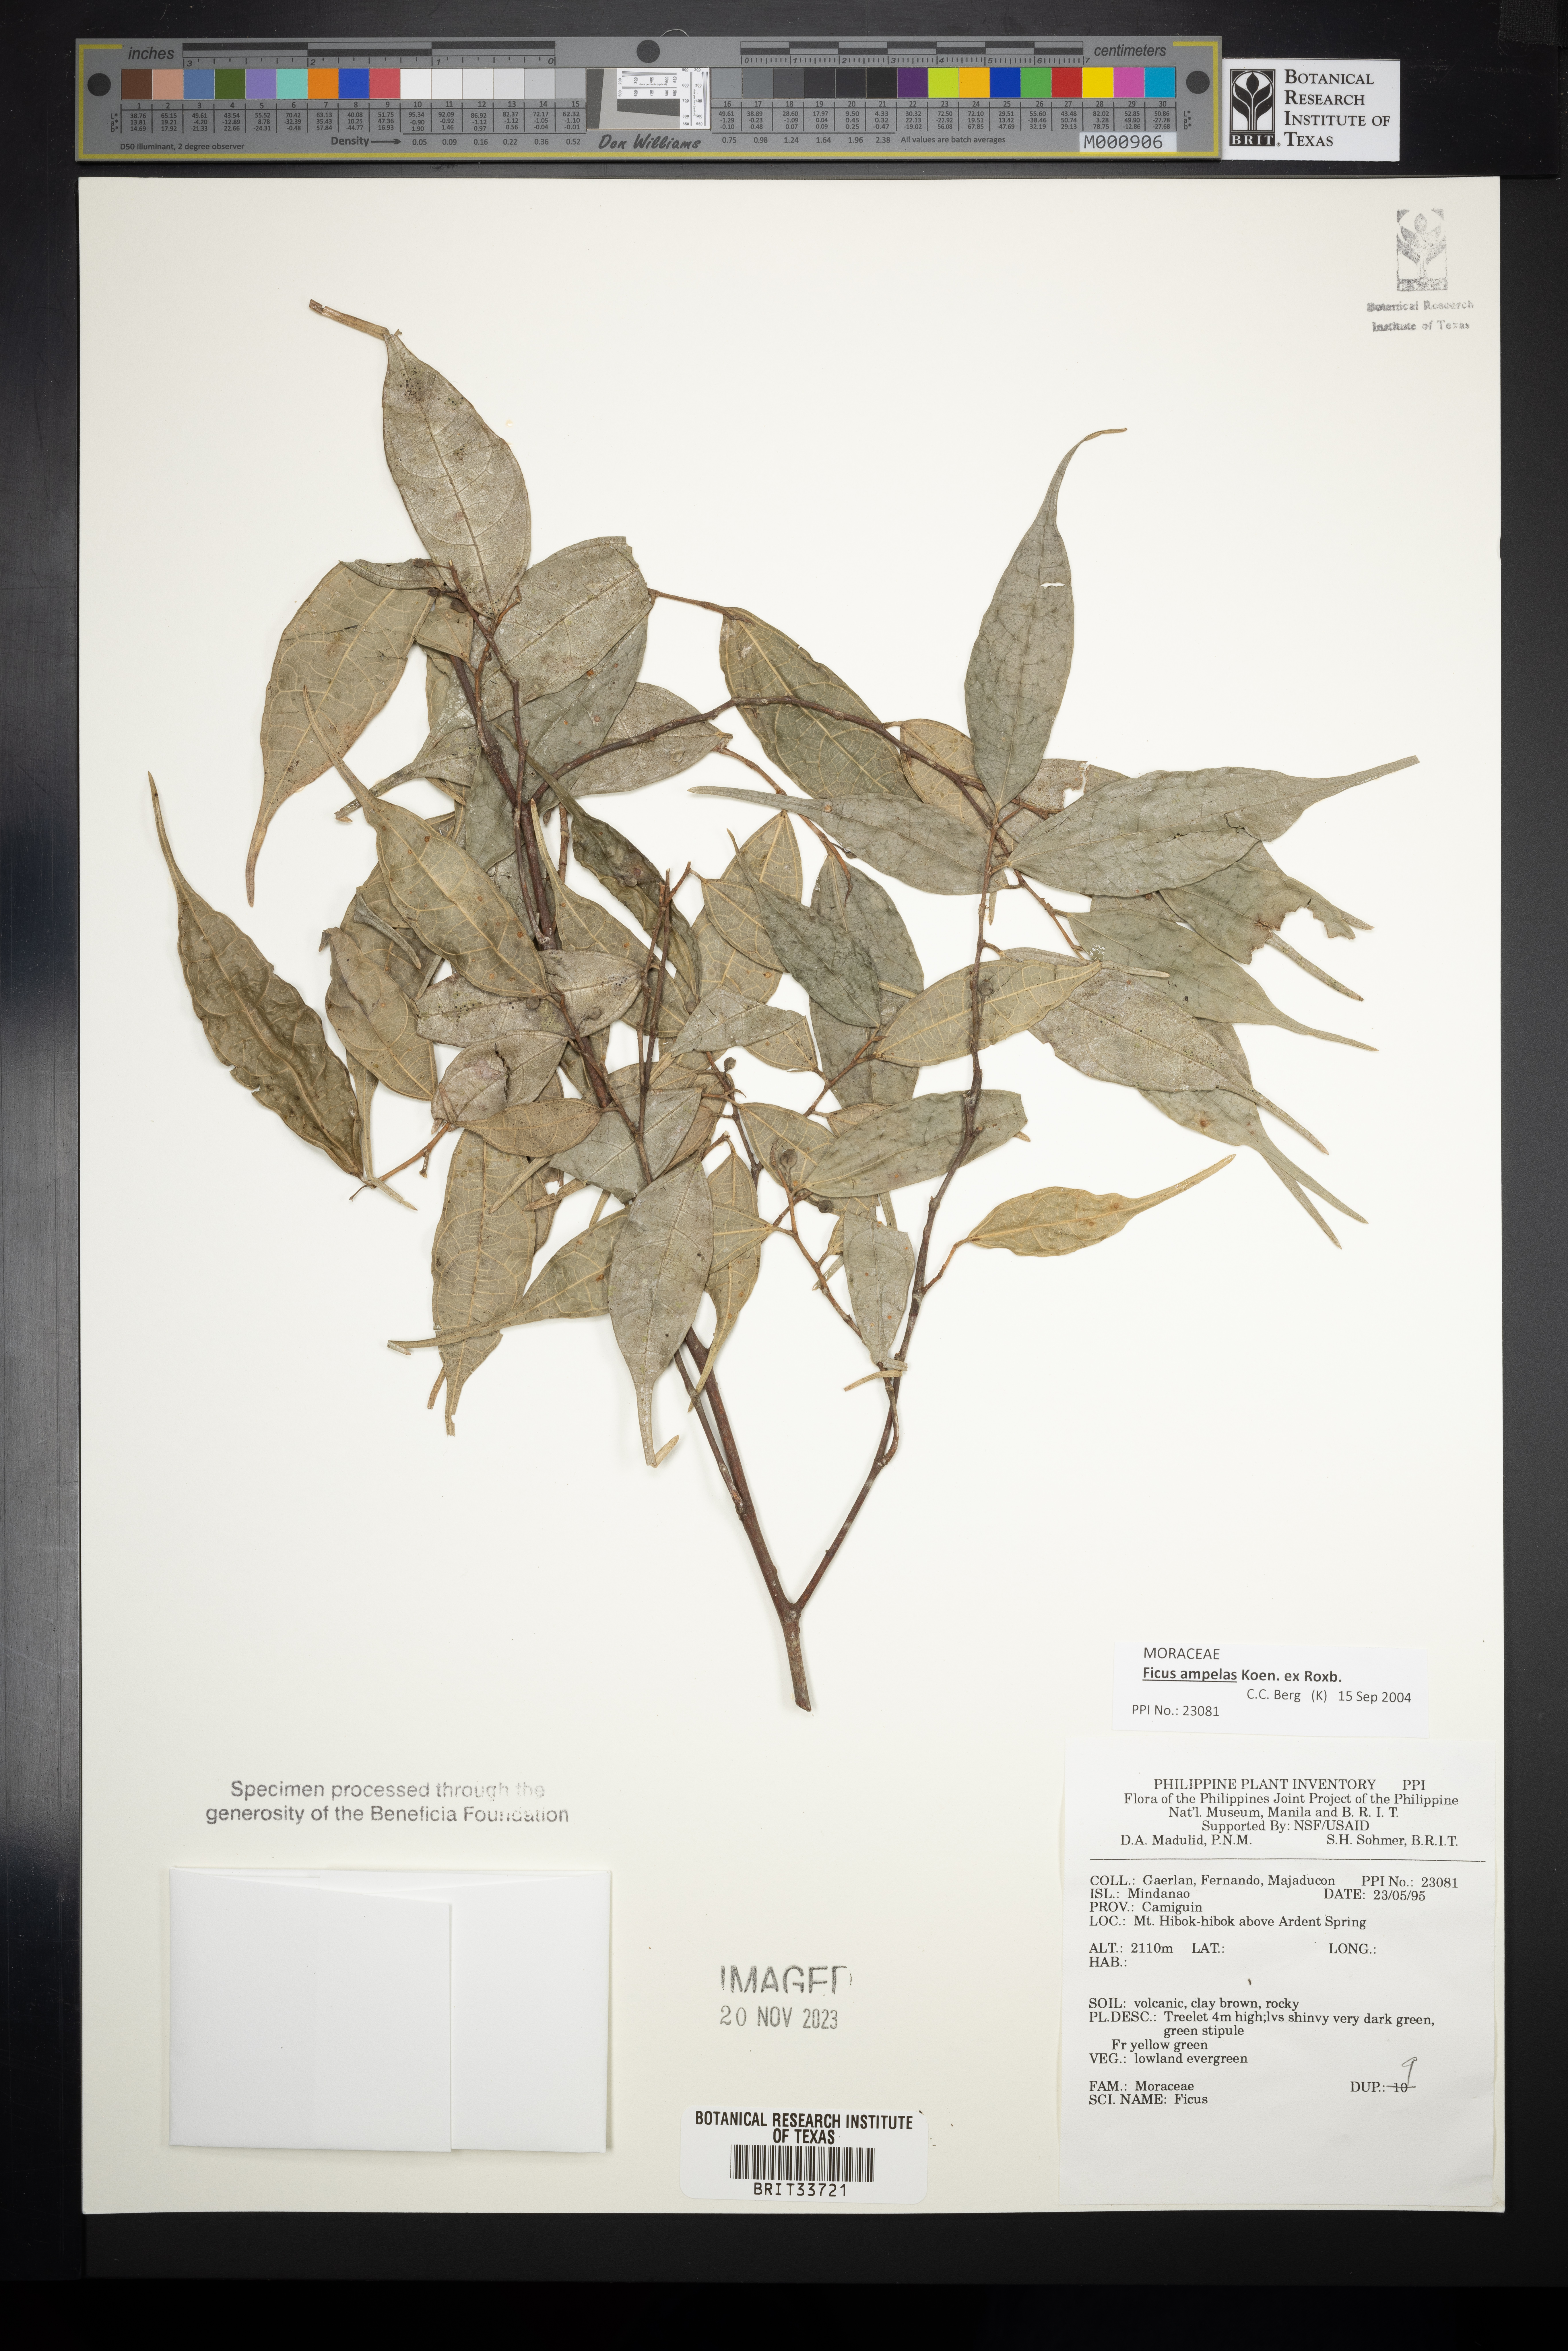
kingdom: Plantae
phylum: Tracheophyta
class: Magnoliopsida
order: Rosales
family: Moraceae
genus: Ficus
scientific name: Ficus
